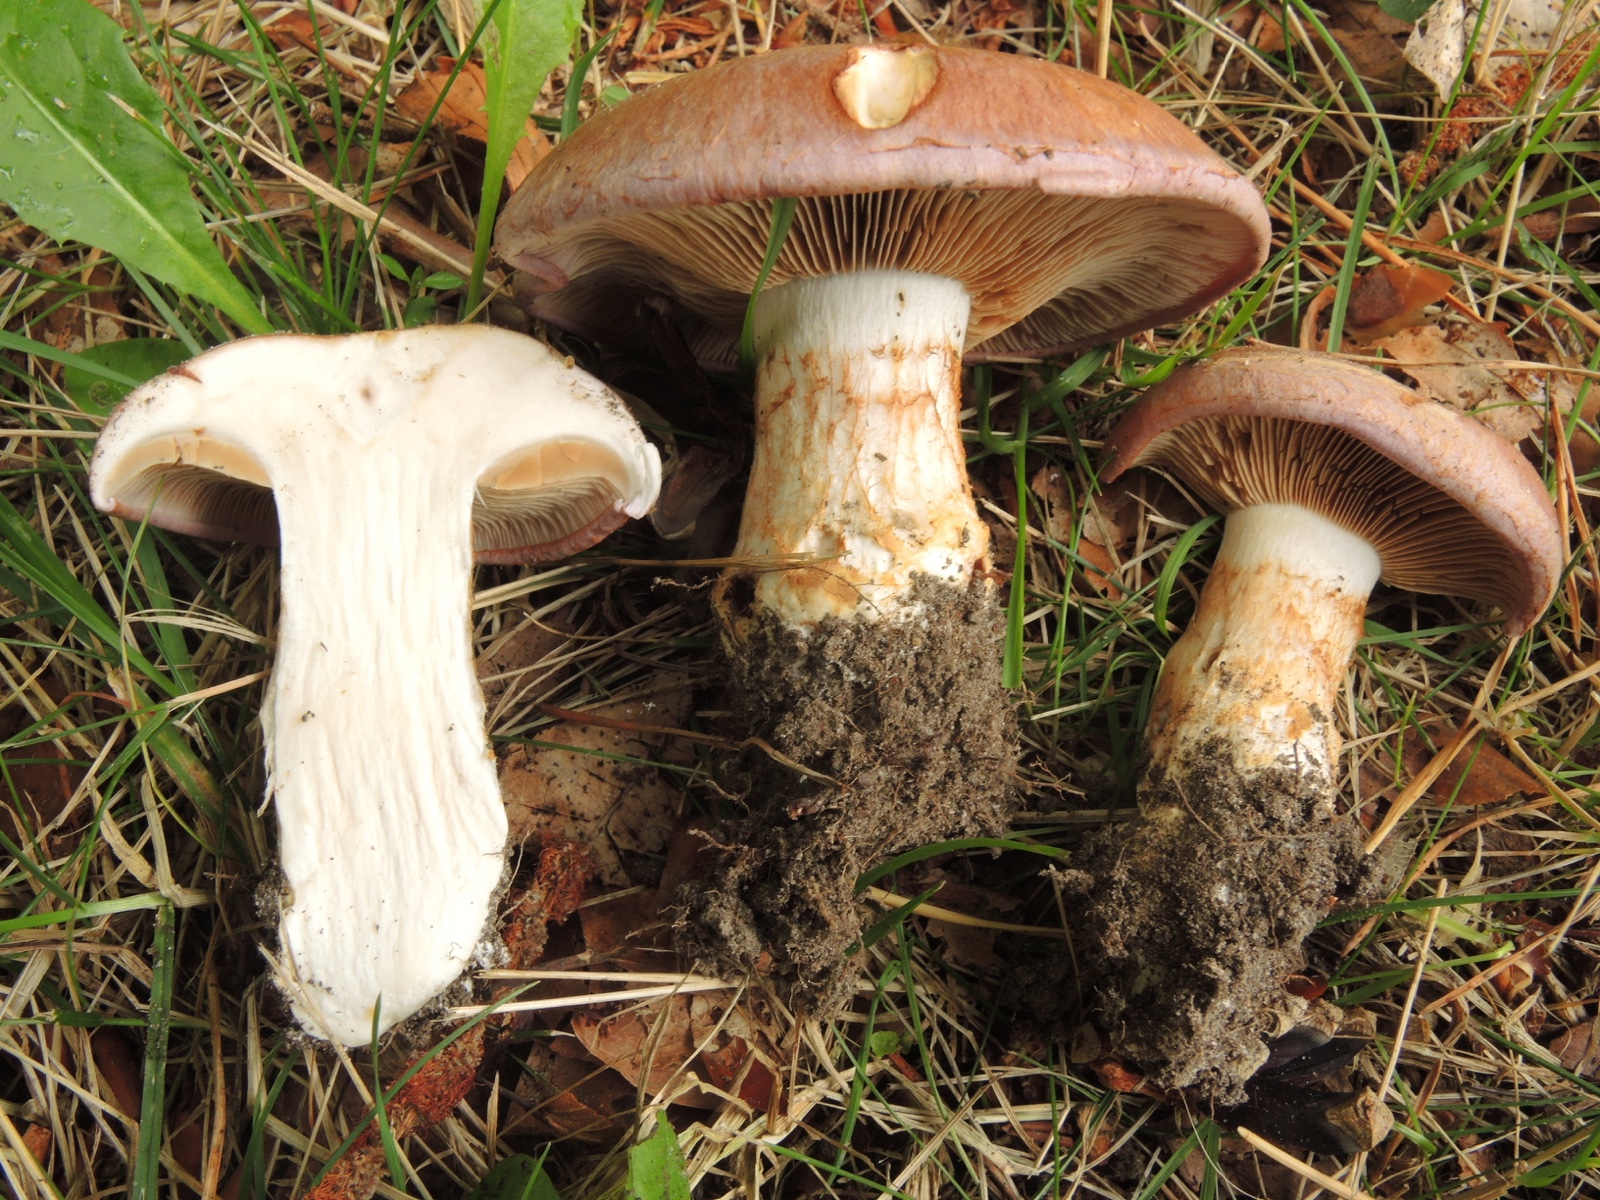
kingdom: Fungi
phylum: Basidiomycota
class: Agaricomycetes
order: Agaricales
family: Cortinariaceae
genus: Phlegmacium
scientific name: Phlegmacium balteatocumatile
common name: violettrådet slørhat
